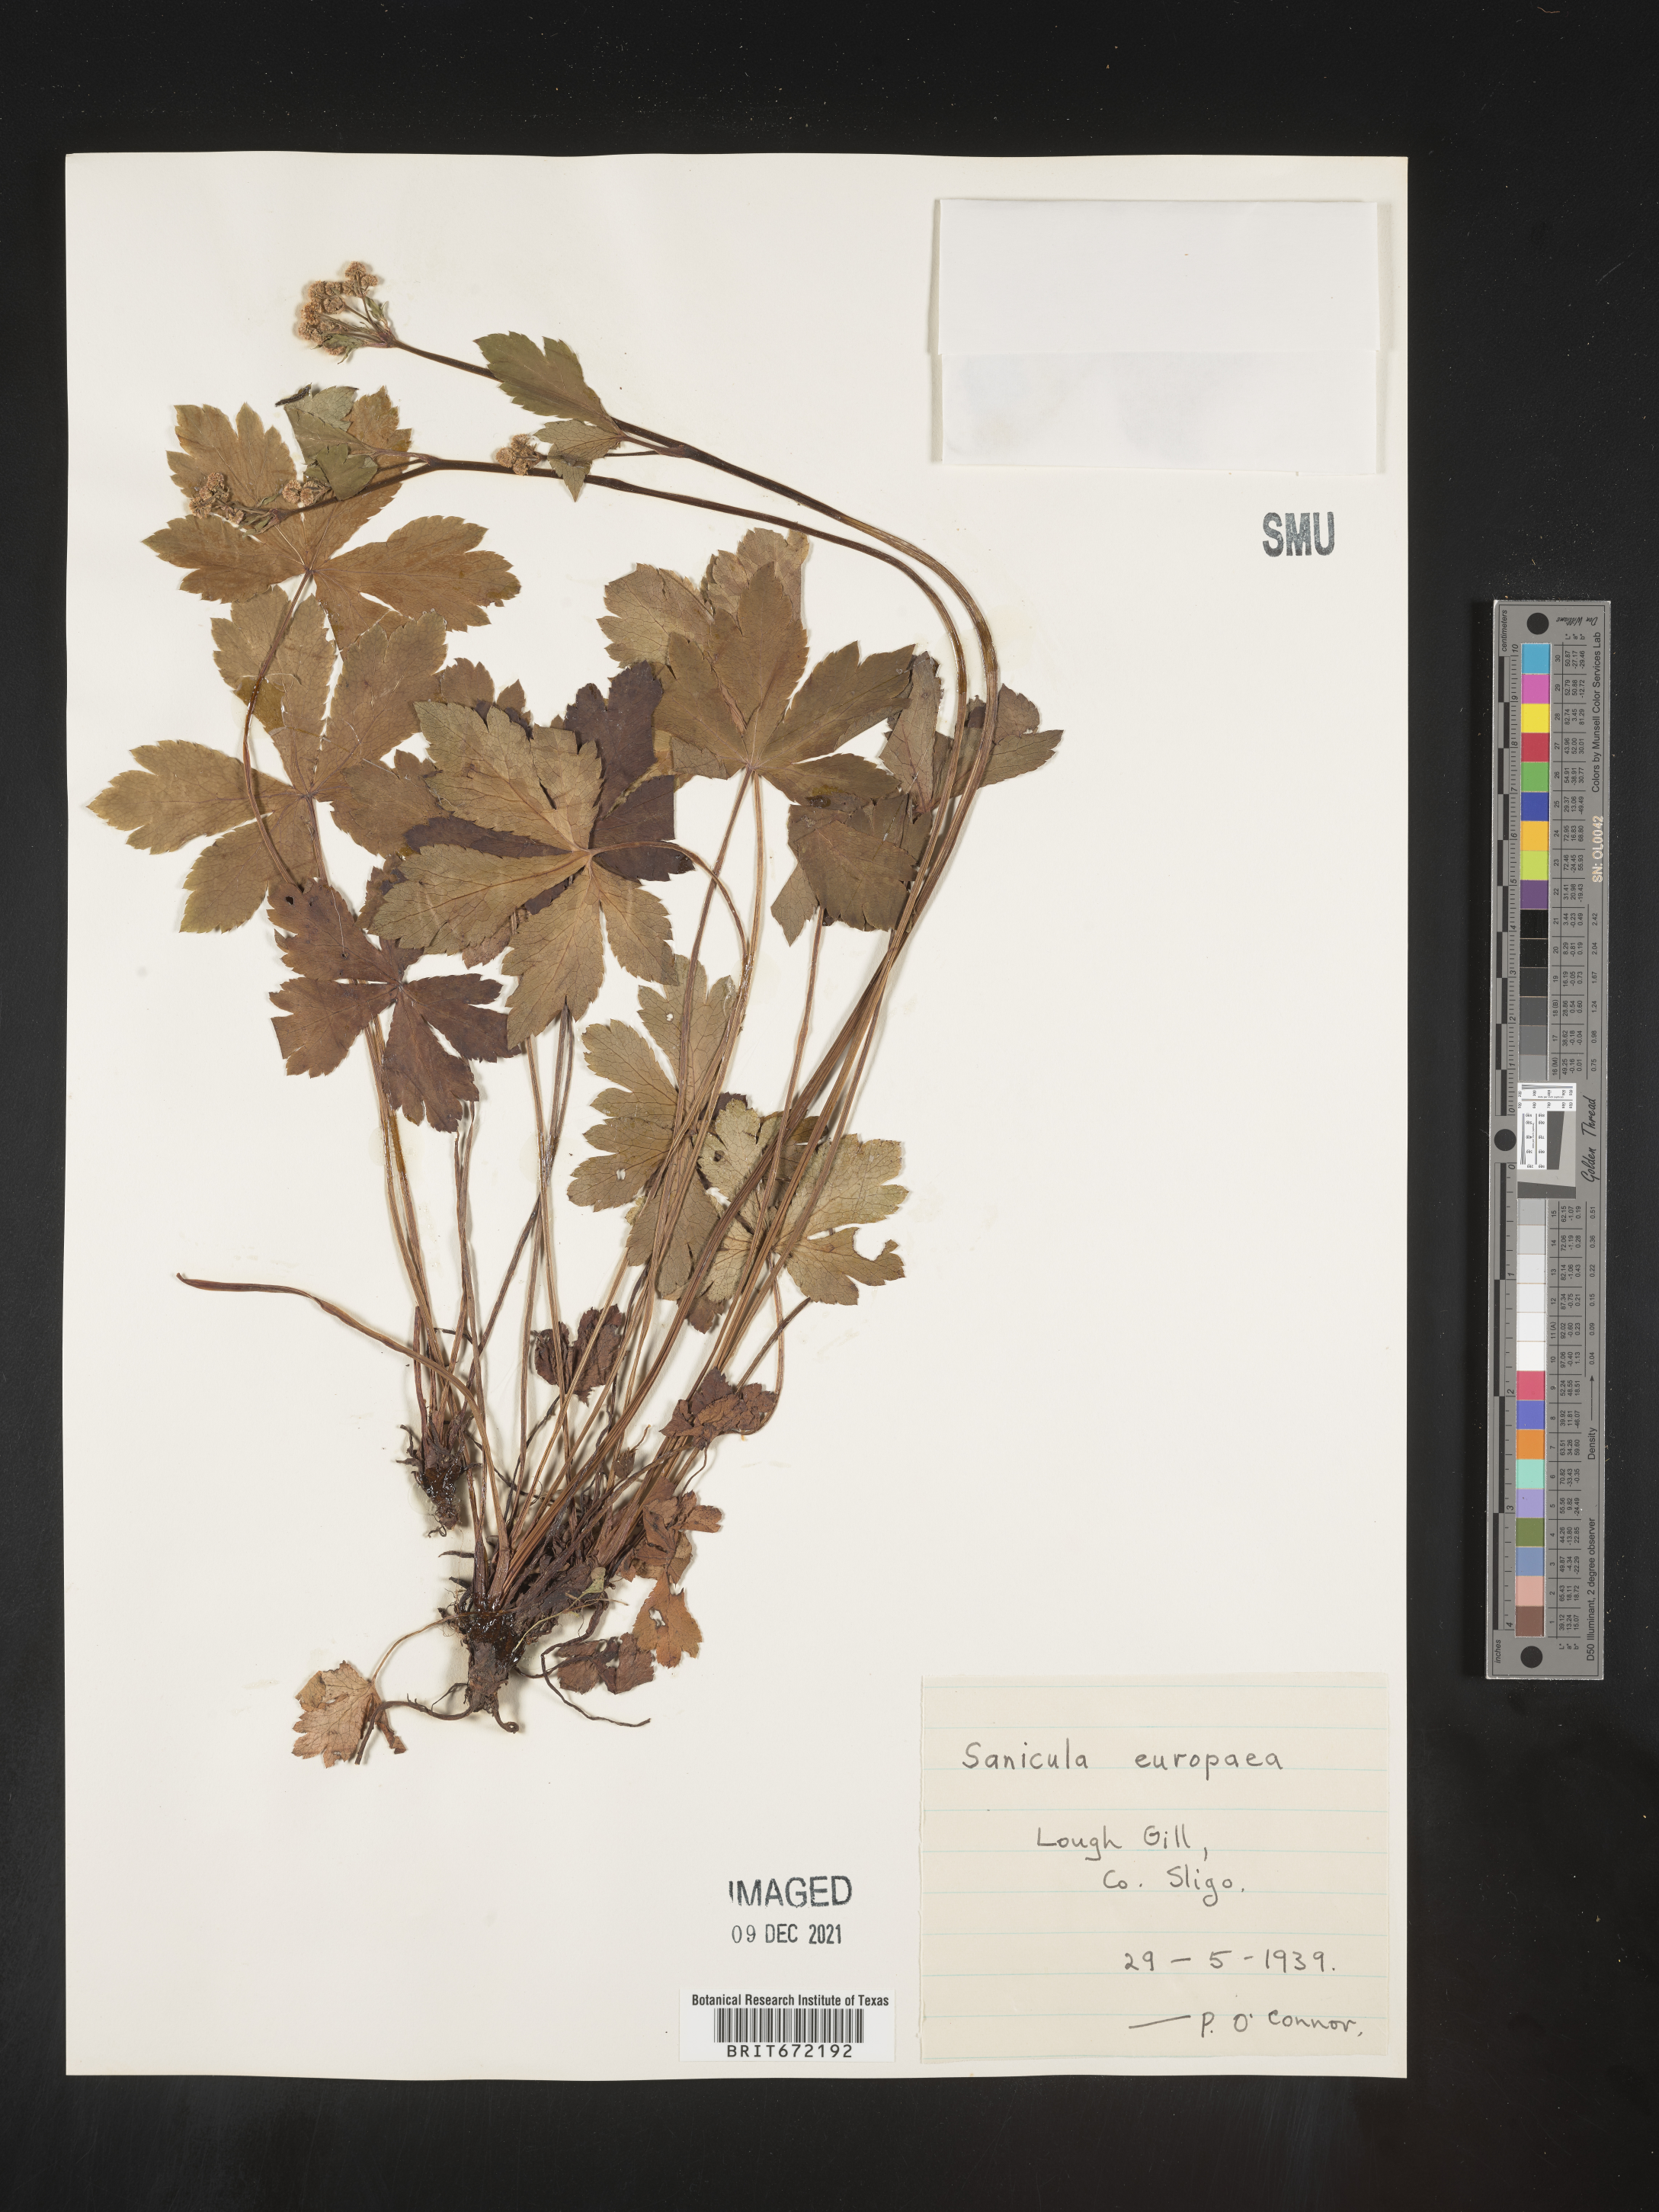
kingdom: Plantae
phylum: Tracheophyta
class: Magnoliopsida
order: Apiales
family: Apiaceae
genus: Sanicula
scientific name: Sanicula
